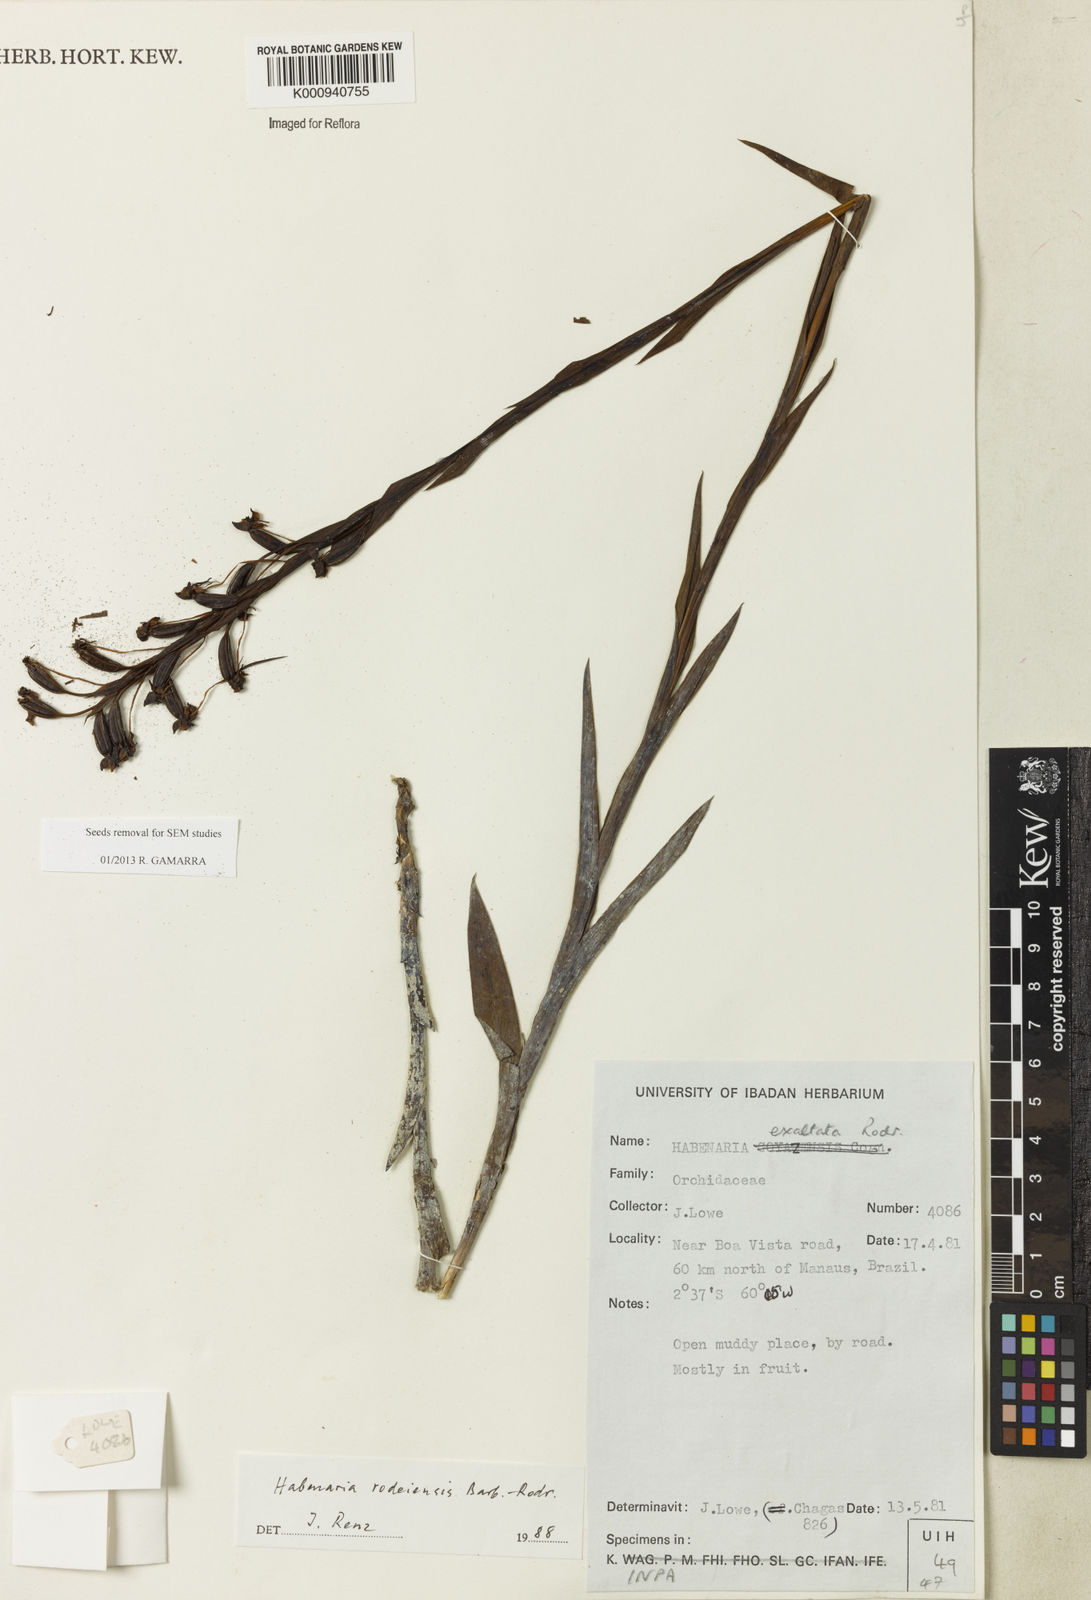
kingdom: Plantae
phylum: Tracheophyta
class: Liliopsida
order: Asparagales
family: Orchidaceae
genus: Habenaria
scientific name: Habenaria rodeiensis
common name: Bog orchid
